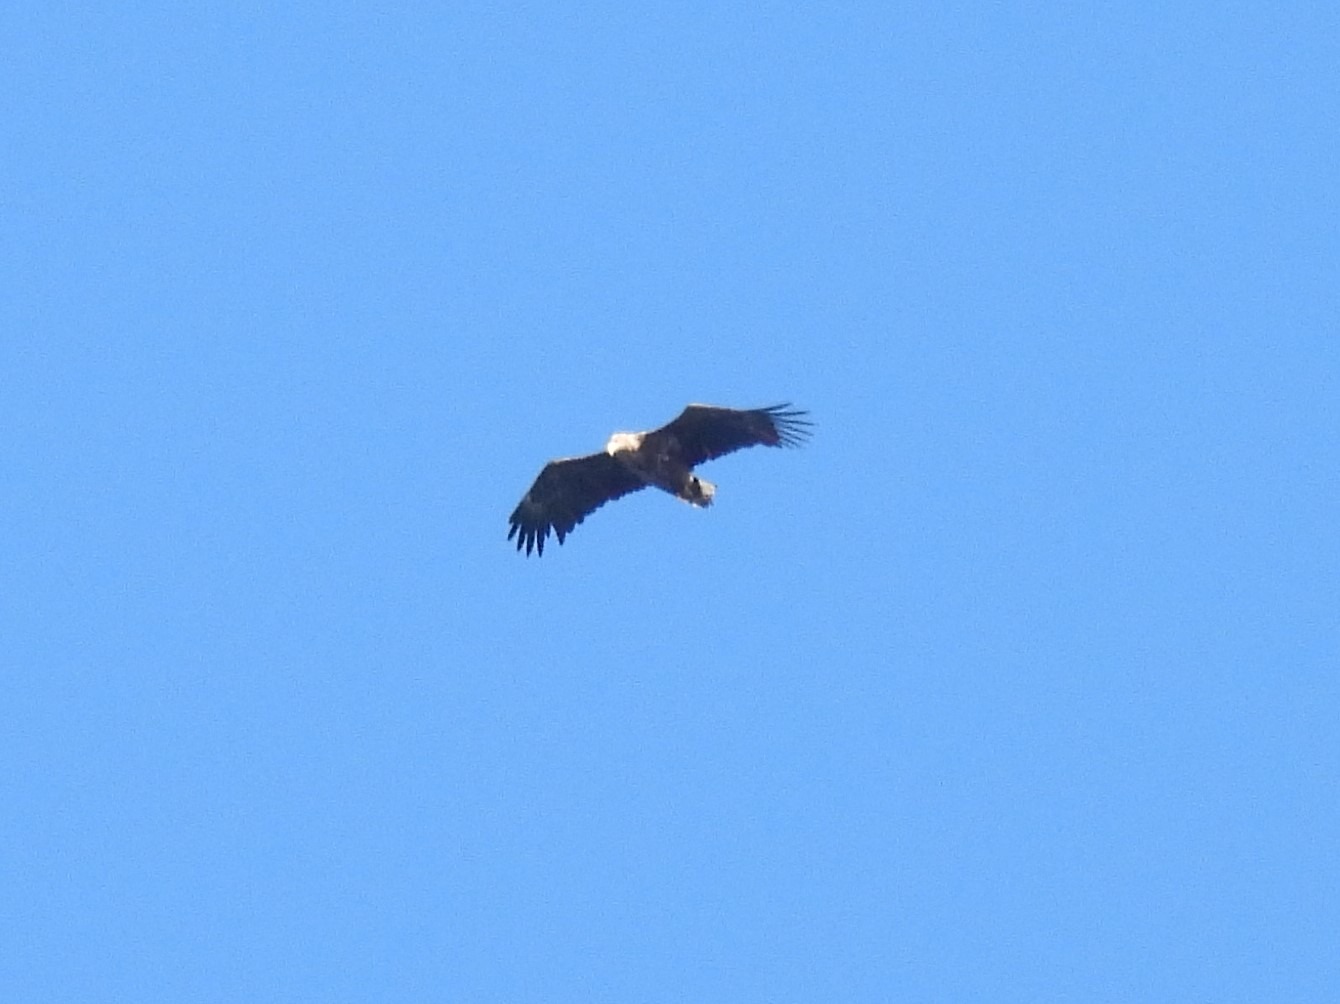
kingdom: Animalia
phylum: Chordata
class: Aves
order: Accipitriformes
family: Accipitridae
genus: Haliaeetus
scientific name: Haliaeetus albicilla
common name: Havørn
